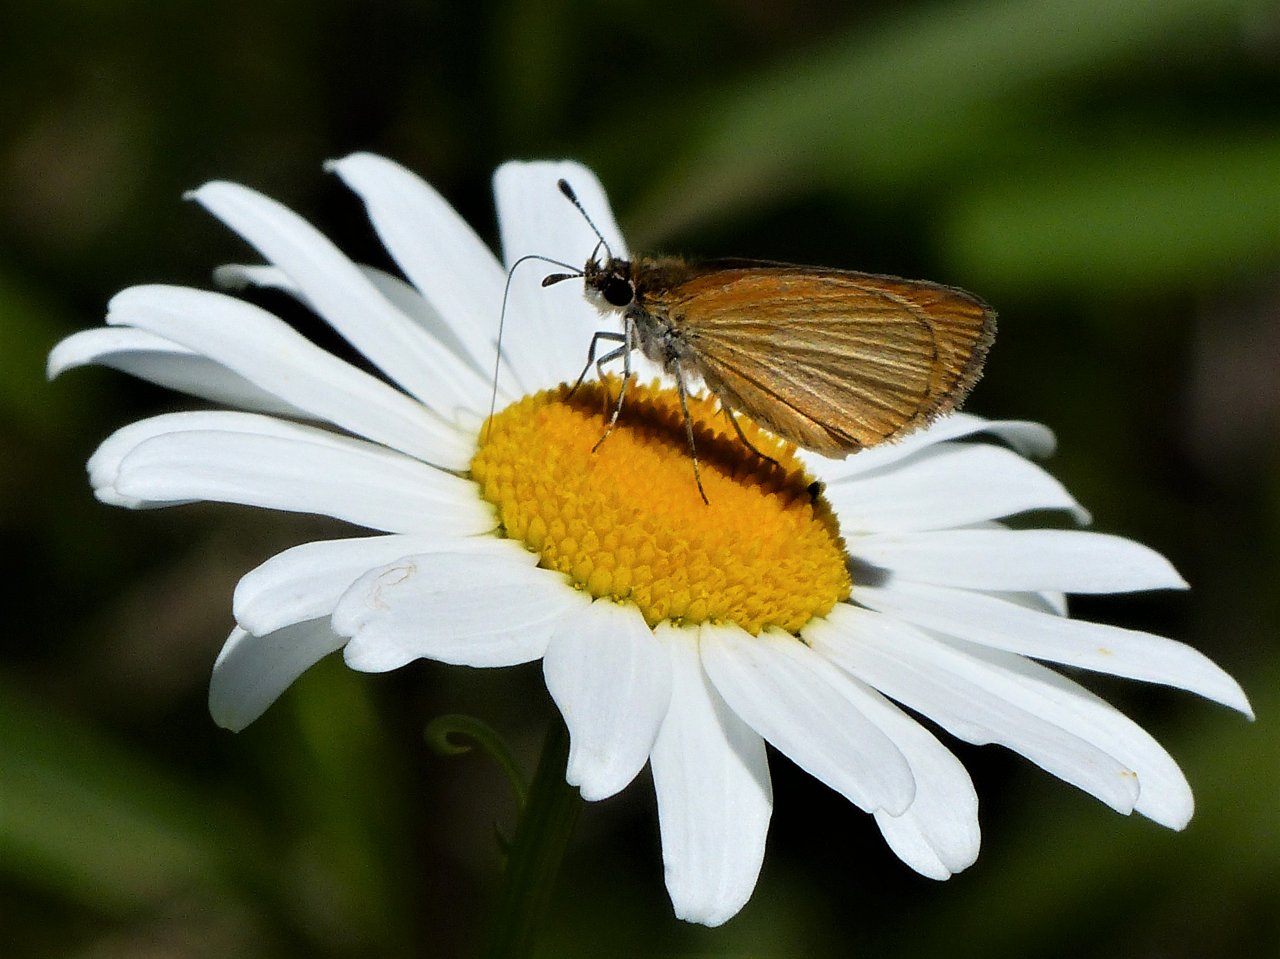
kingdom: Animalia
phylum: Arthropoda
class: Insecta
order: Lepidoptera
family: Hesperiidae
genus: Ancyloxypha
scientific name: Ancyloxypha numitor
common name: Least Skipper
